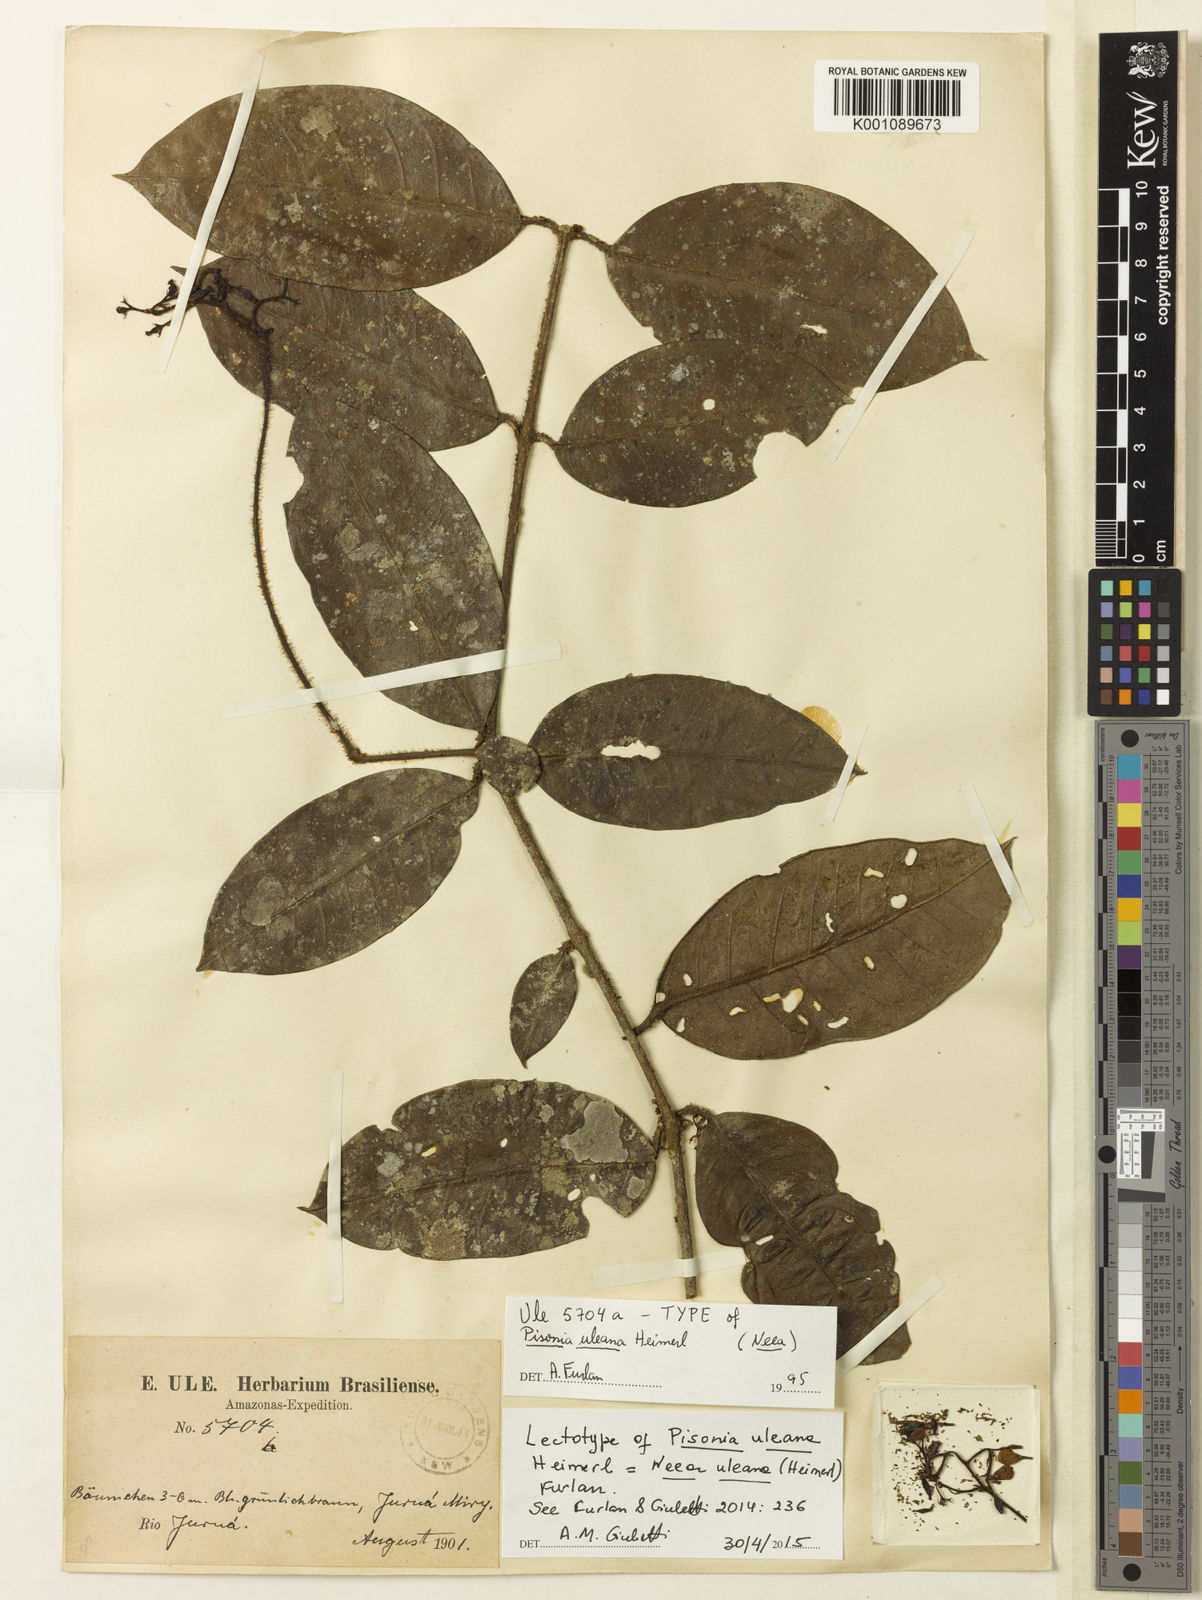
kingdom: Plantae
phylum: Tracheophyta
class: Magnoliopsida
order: Caryophyllales
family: Nyctaginaceae
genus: Neea
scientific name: Neea uleana
